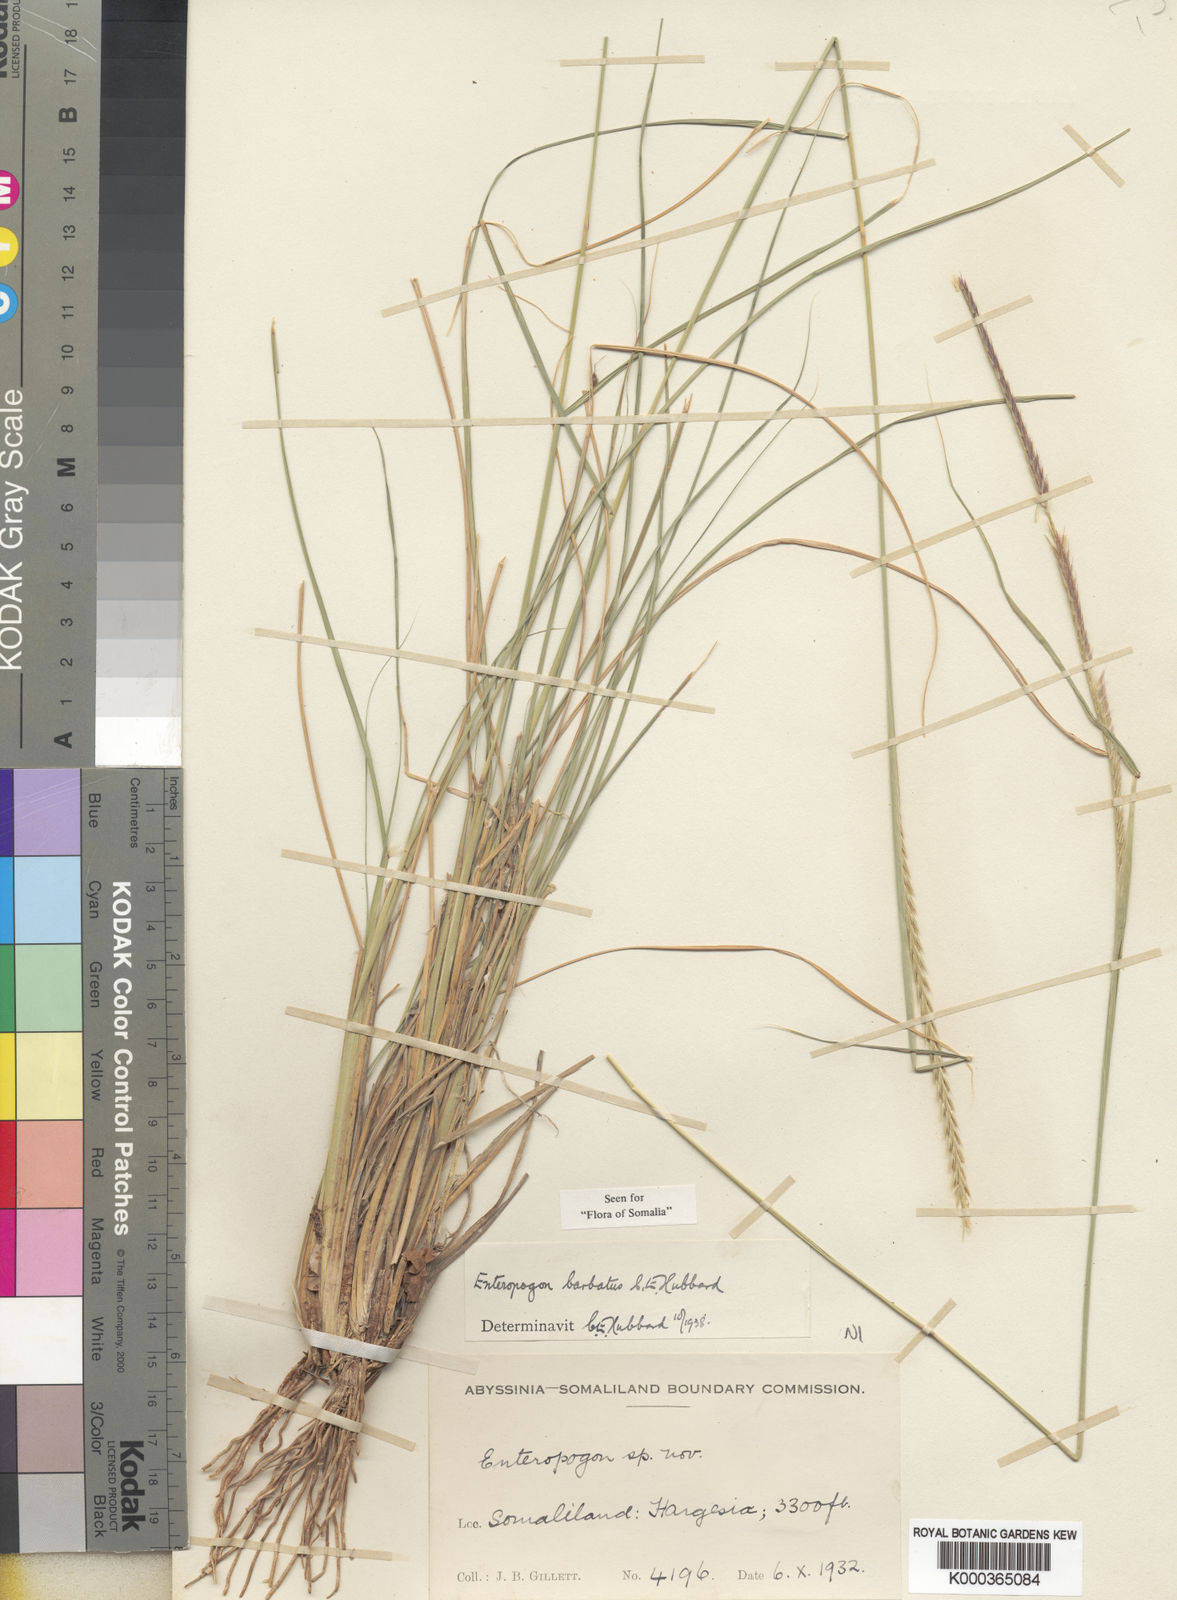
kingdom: Plantae
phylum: Tracheophyta
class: Liliopsida
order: Poales
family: Poaceae
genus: Enteropogon
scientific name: Enteropogon barbatus
